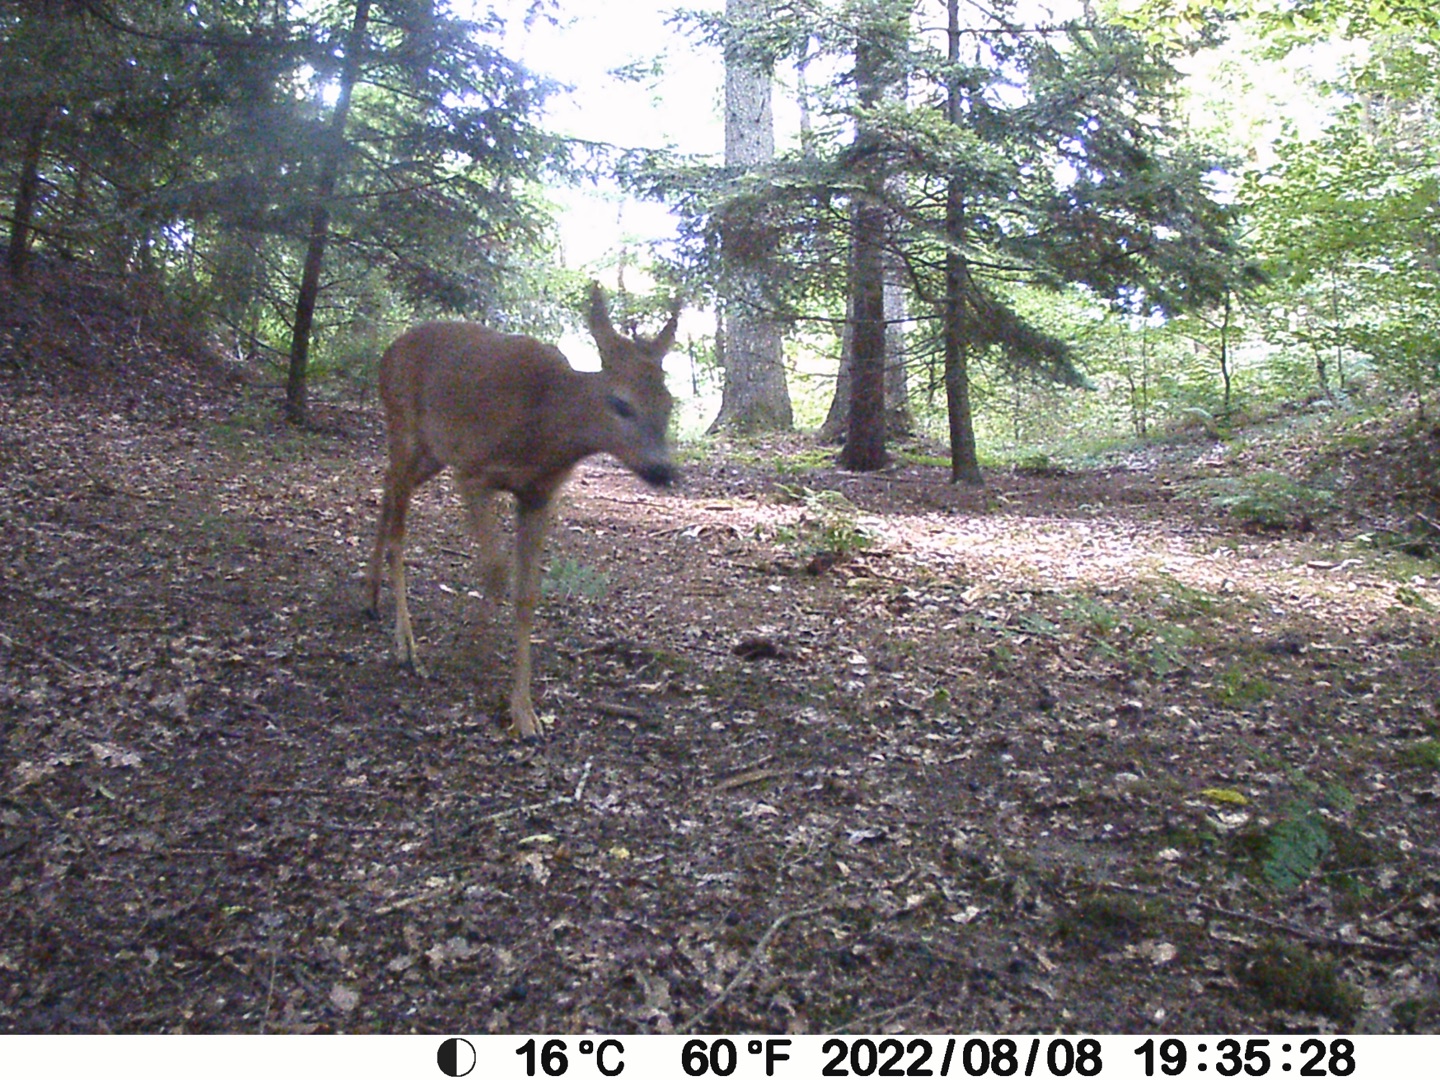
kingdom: Animalia
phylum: Chordata
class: Mammalia
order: Artiodactyla
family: Cervidae
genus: Capreolus
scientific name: Capreolus capreolus
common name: Rådyr
